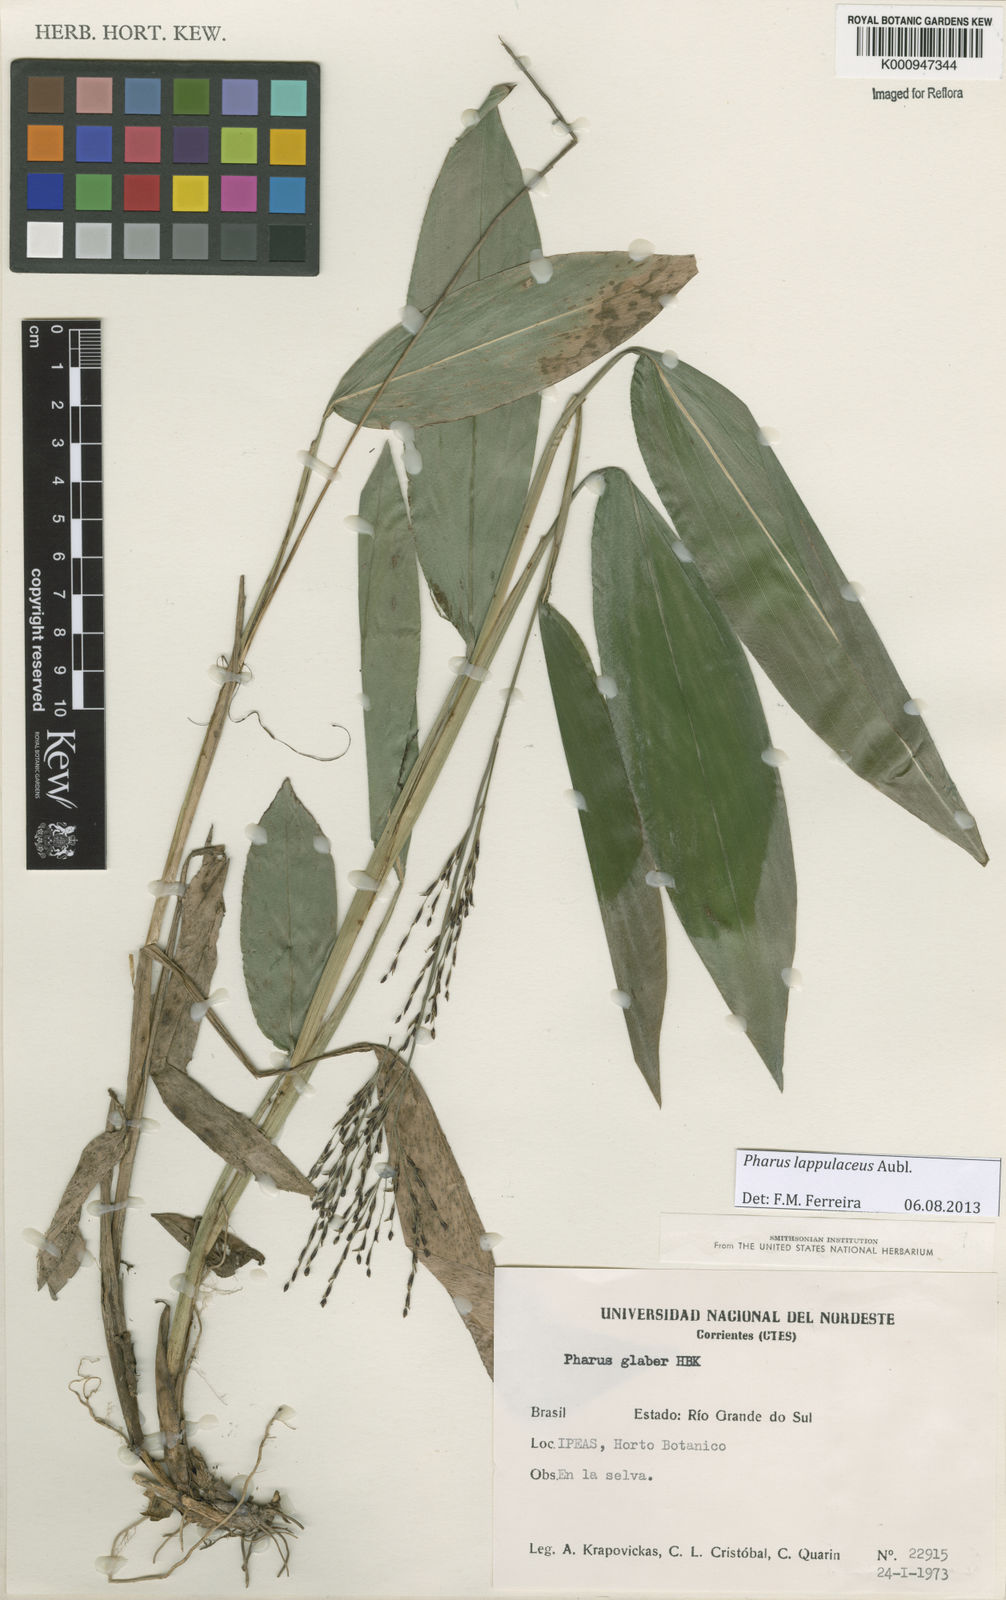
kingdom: Plantae
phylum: Tracheophyta
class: Liliopsida
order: Poales
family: Poaceae
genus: Pharus
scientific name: Pharus lappulaceus
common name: Creeping leafstalk grass
